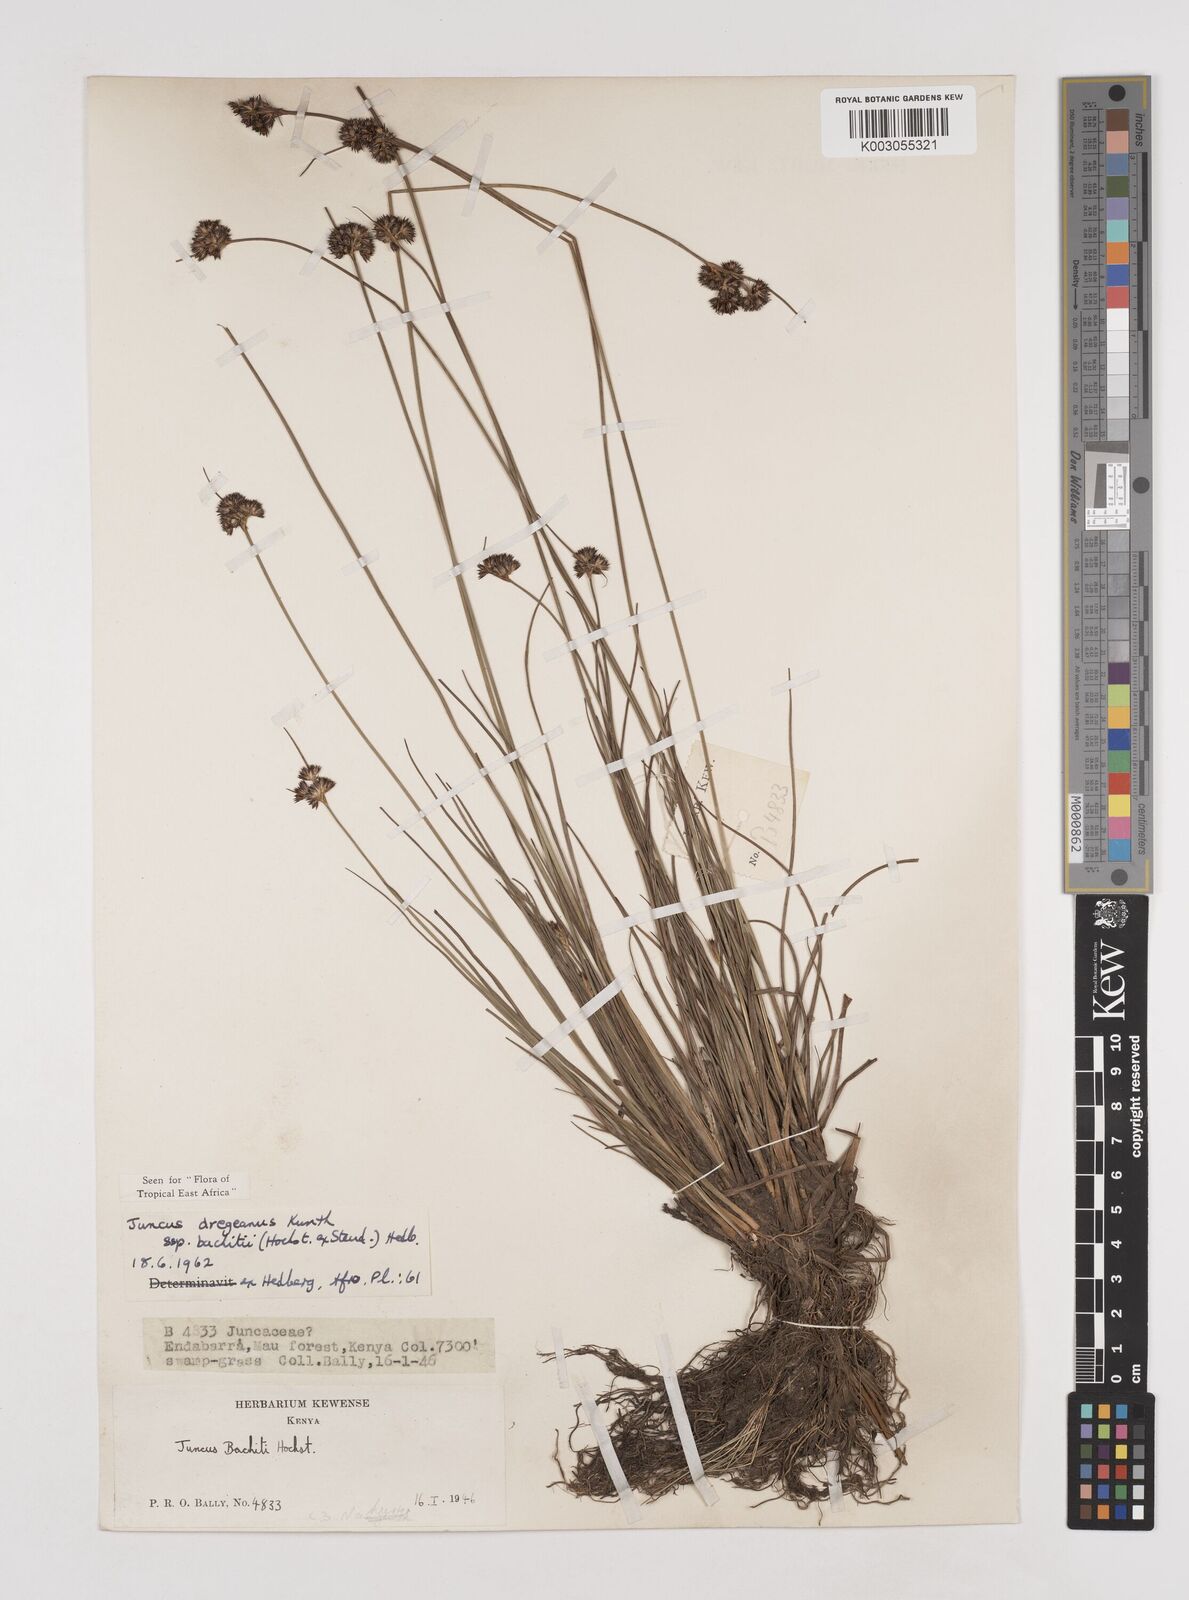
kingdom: Plantae
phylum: Tracheophyta
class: Liliopsida
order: Poales
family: Juncaceae
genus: Juncus
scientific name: Juncus dregeanus
